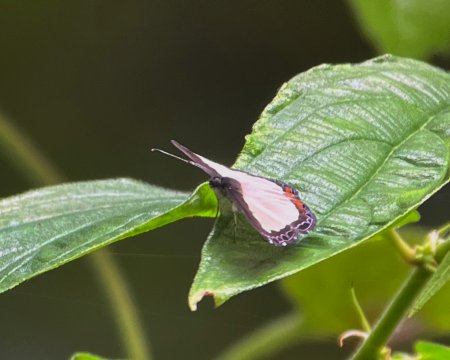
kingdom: Animalia
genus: Nymphidium
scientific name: Nymphidium cachrus
